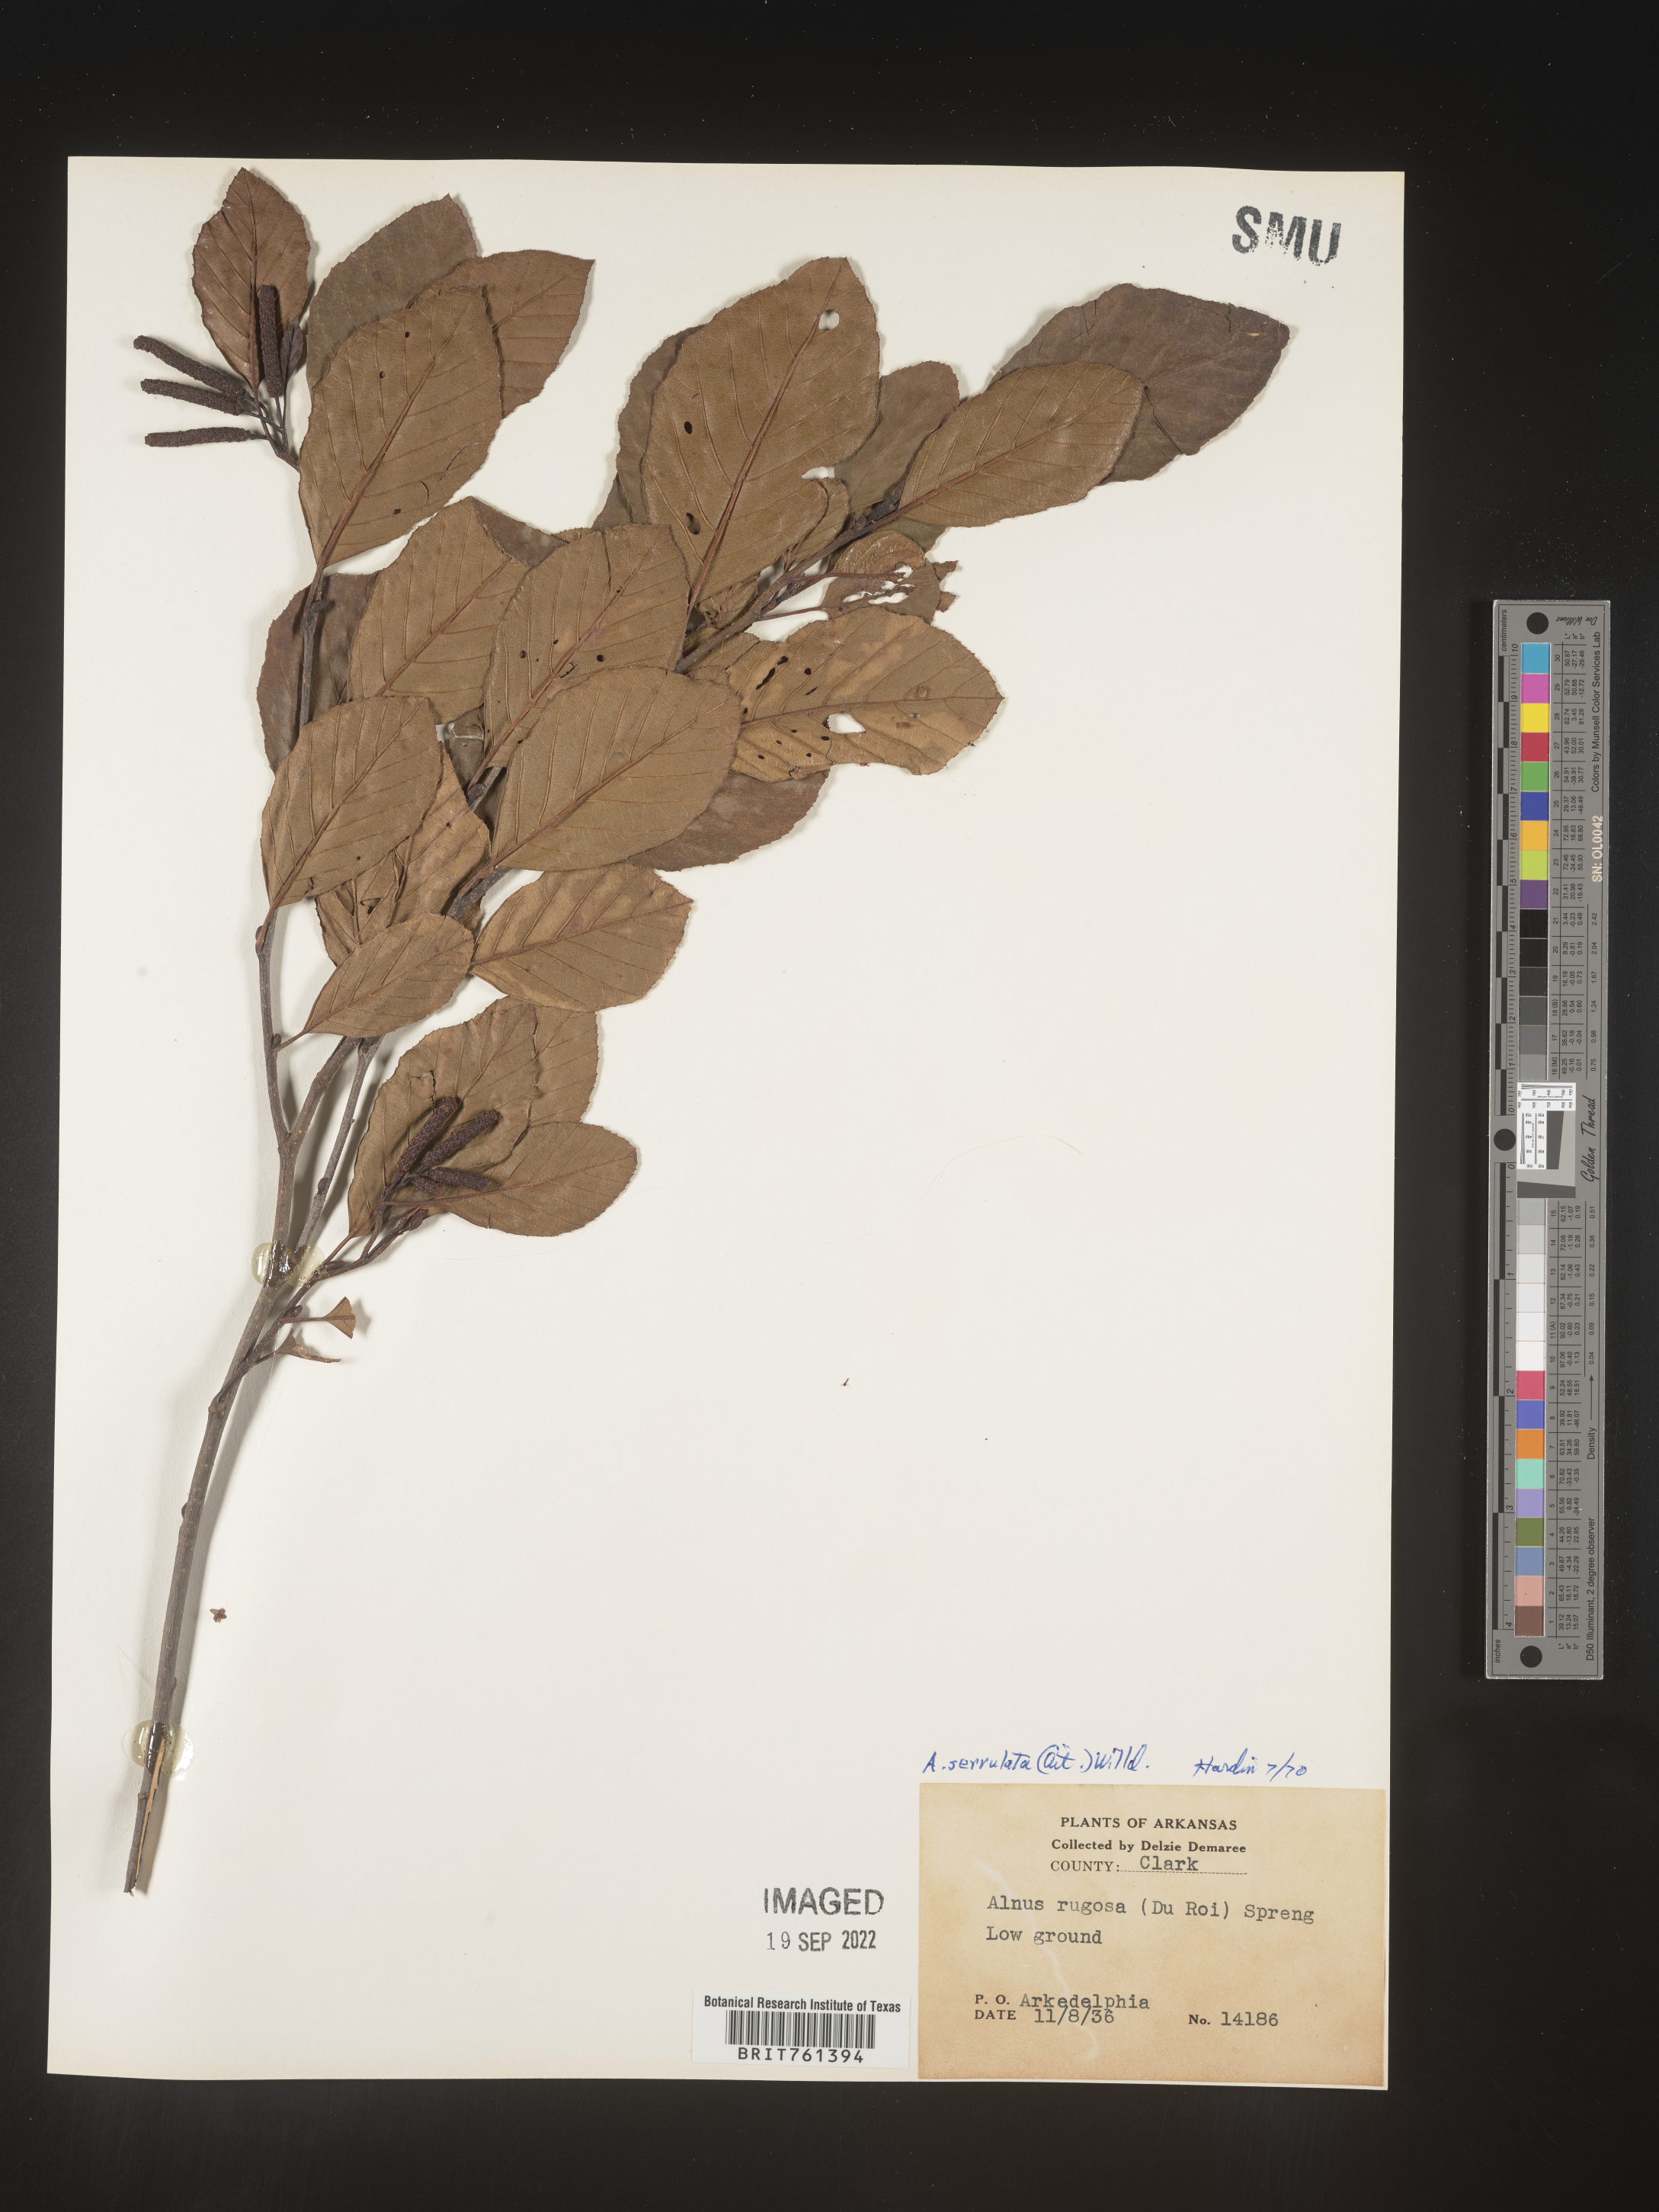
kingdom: Plantae
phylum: Tracheophyta
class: Magnoliopsida
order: Fagales
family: Betulaceae
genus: Alnus
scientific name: Alnus serrulata
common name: Hazel alder
